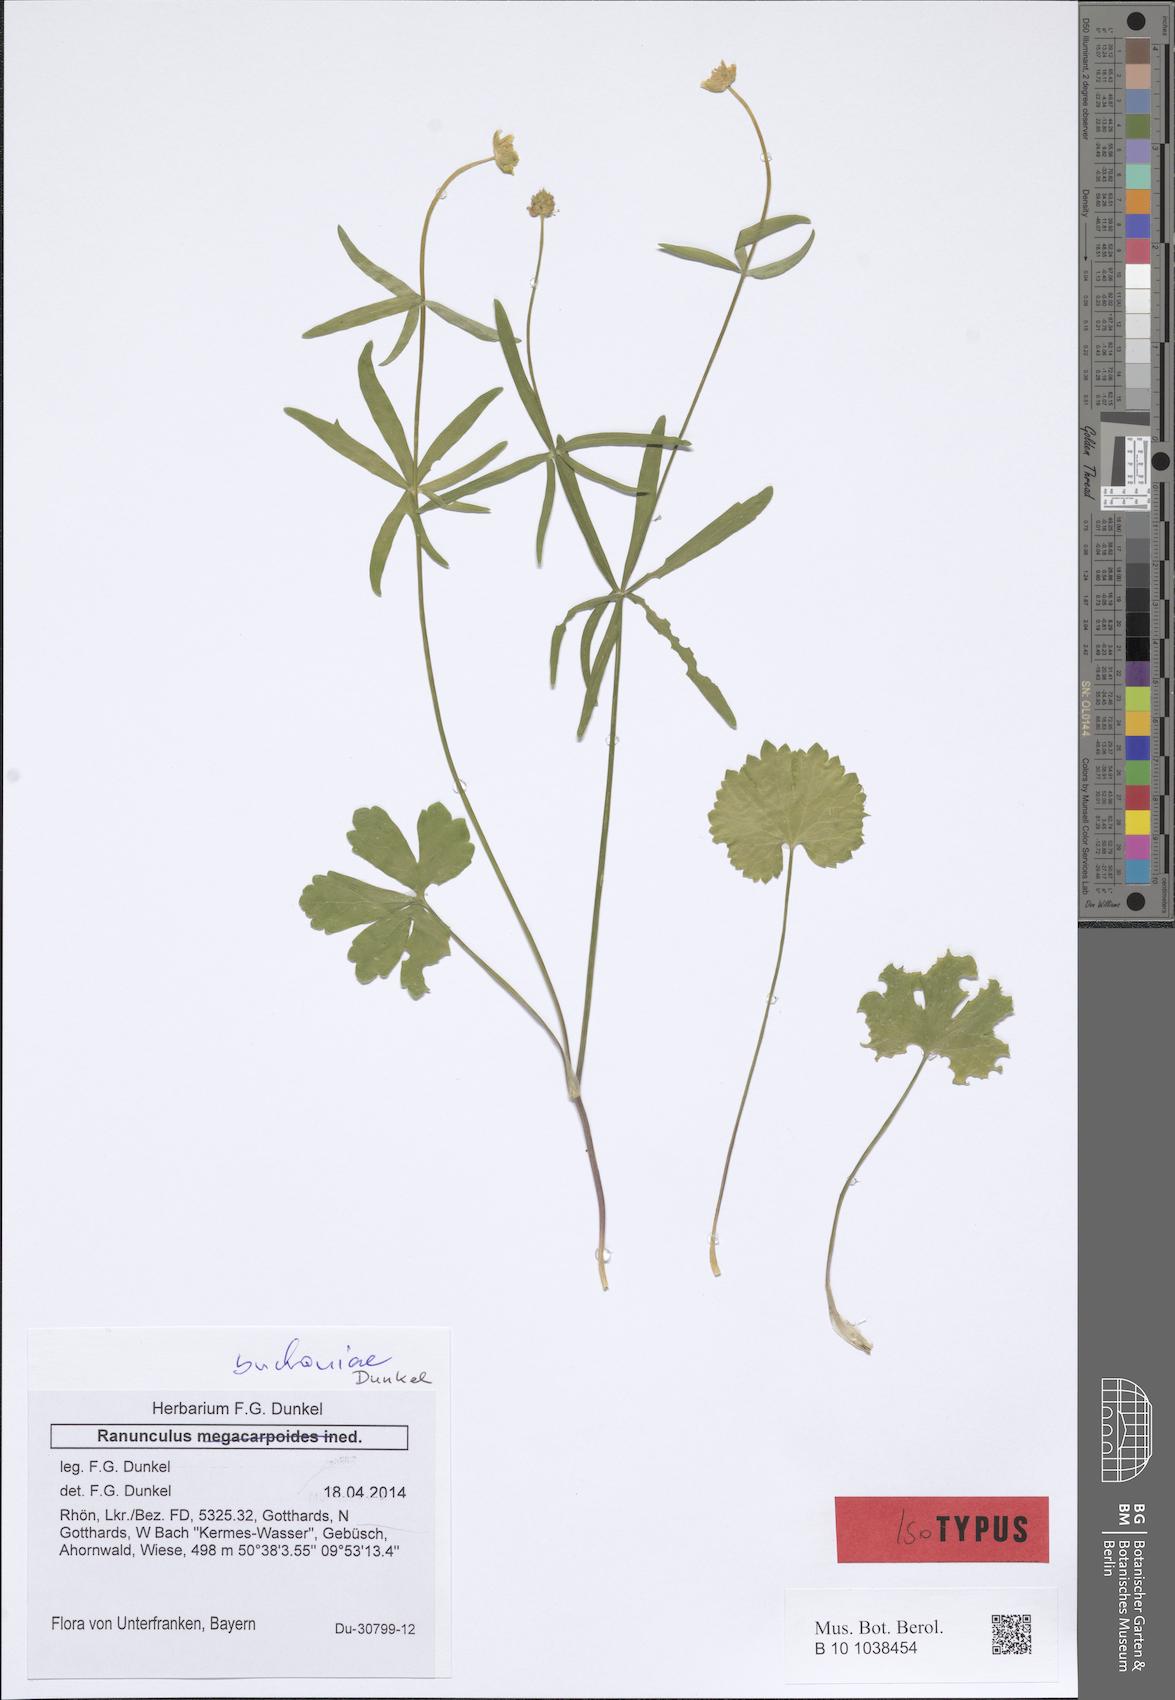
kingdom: Plantae
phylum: Tracheophyta
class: Magnoliopsida
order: Ranunculales
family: Ranunculaceae
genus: Ranunculus
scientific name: Ranunculus buchoniae
